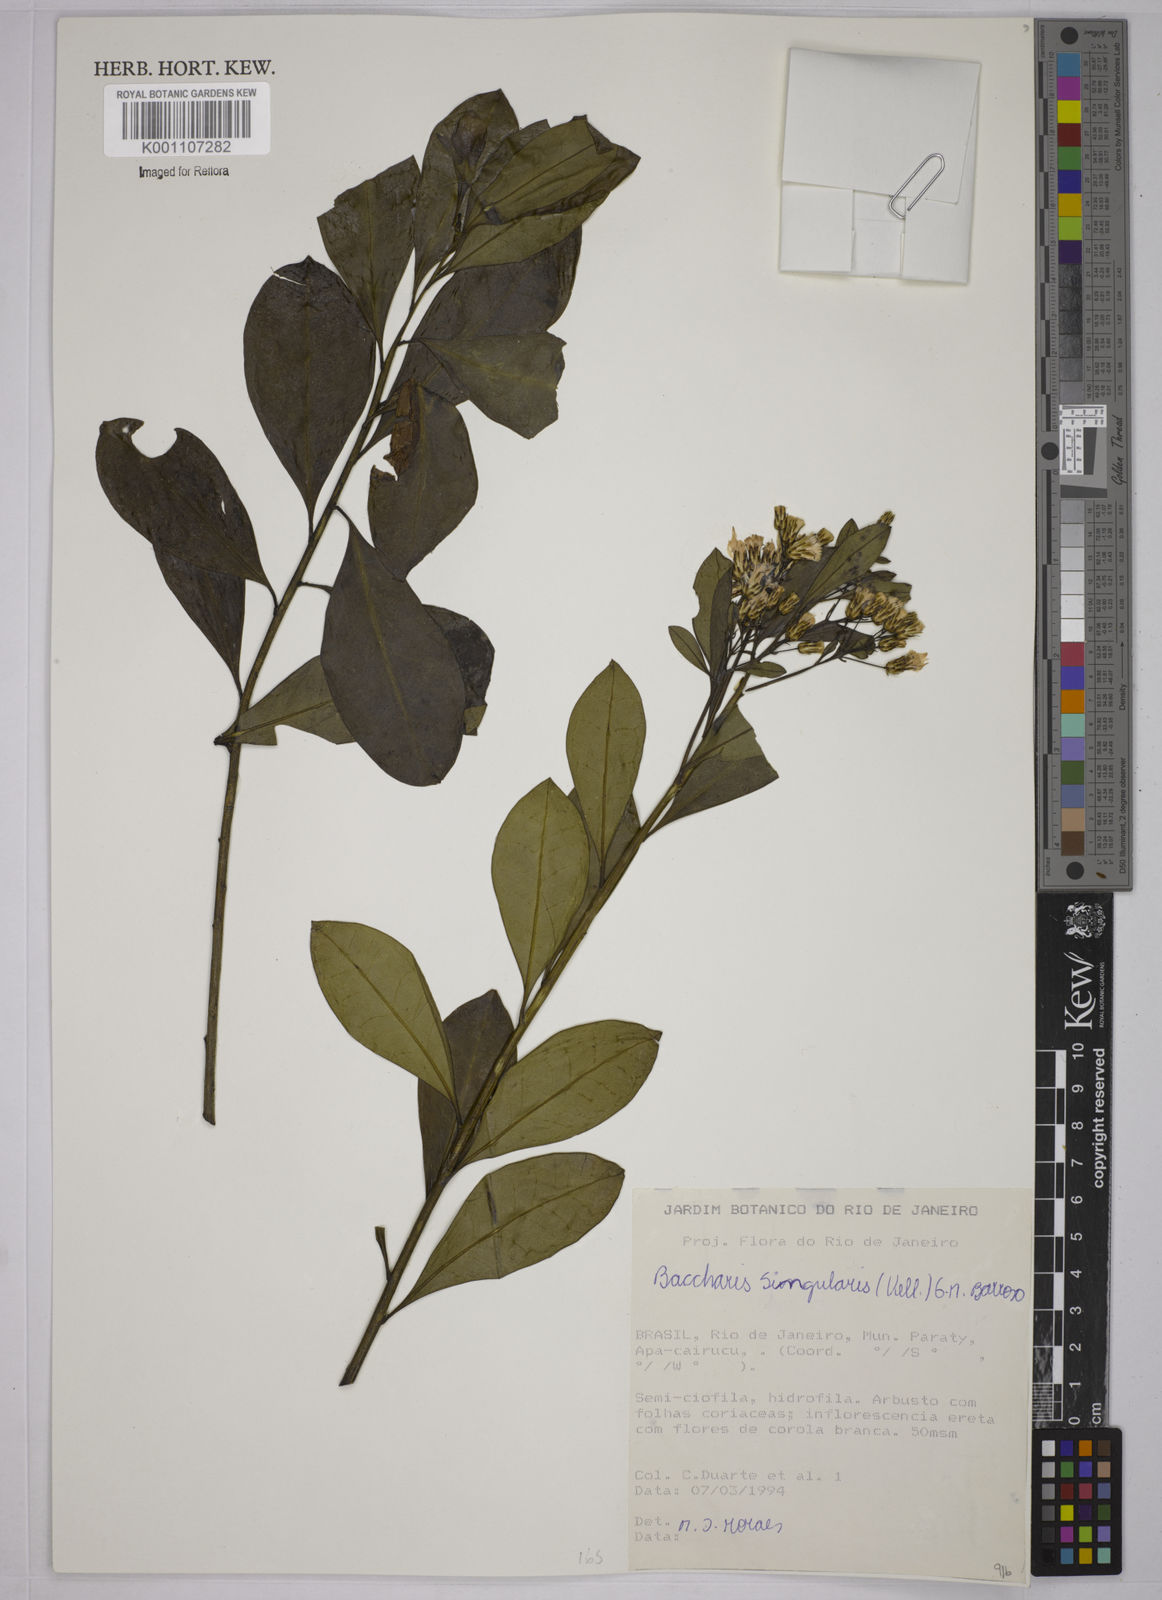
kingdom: Plantae
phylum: Tracheophyta
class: Magnoliopsida
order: Asterales
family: Asteraceae
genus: Baccharis
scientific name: Baccharis singularis
